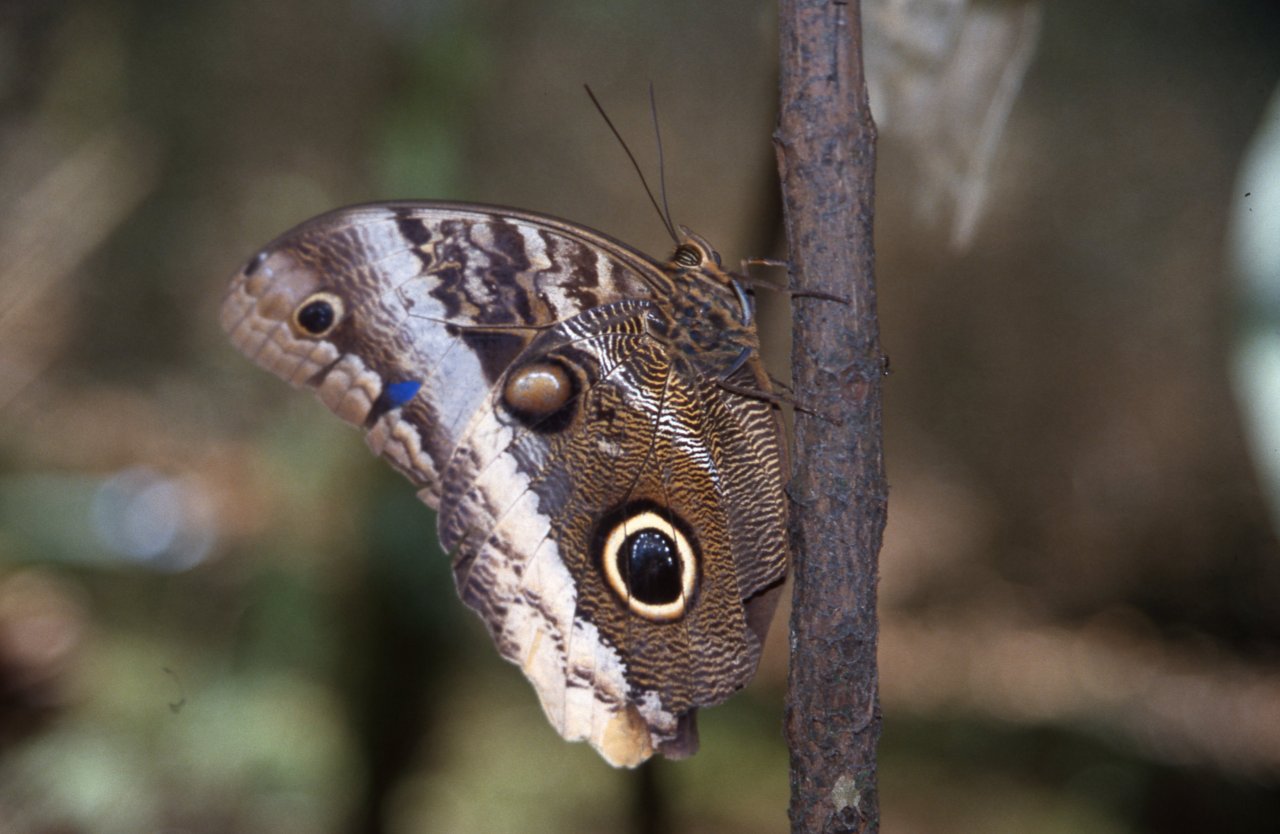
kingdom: Animalia
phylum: Arthropoda
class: Insecta
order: Lepidoptera
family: Nymphalidae
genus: Caligo
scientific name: Caligo
